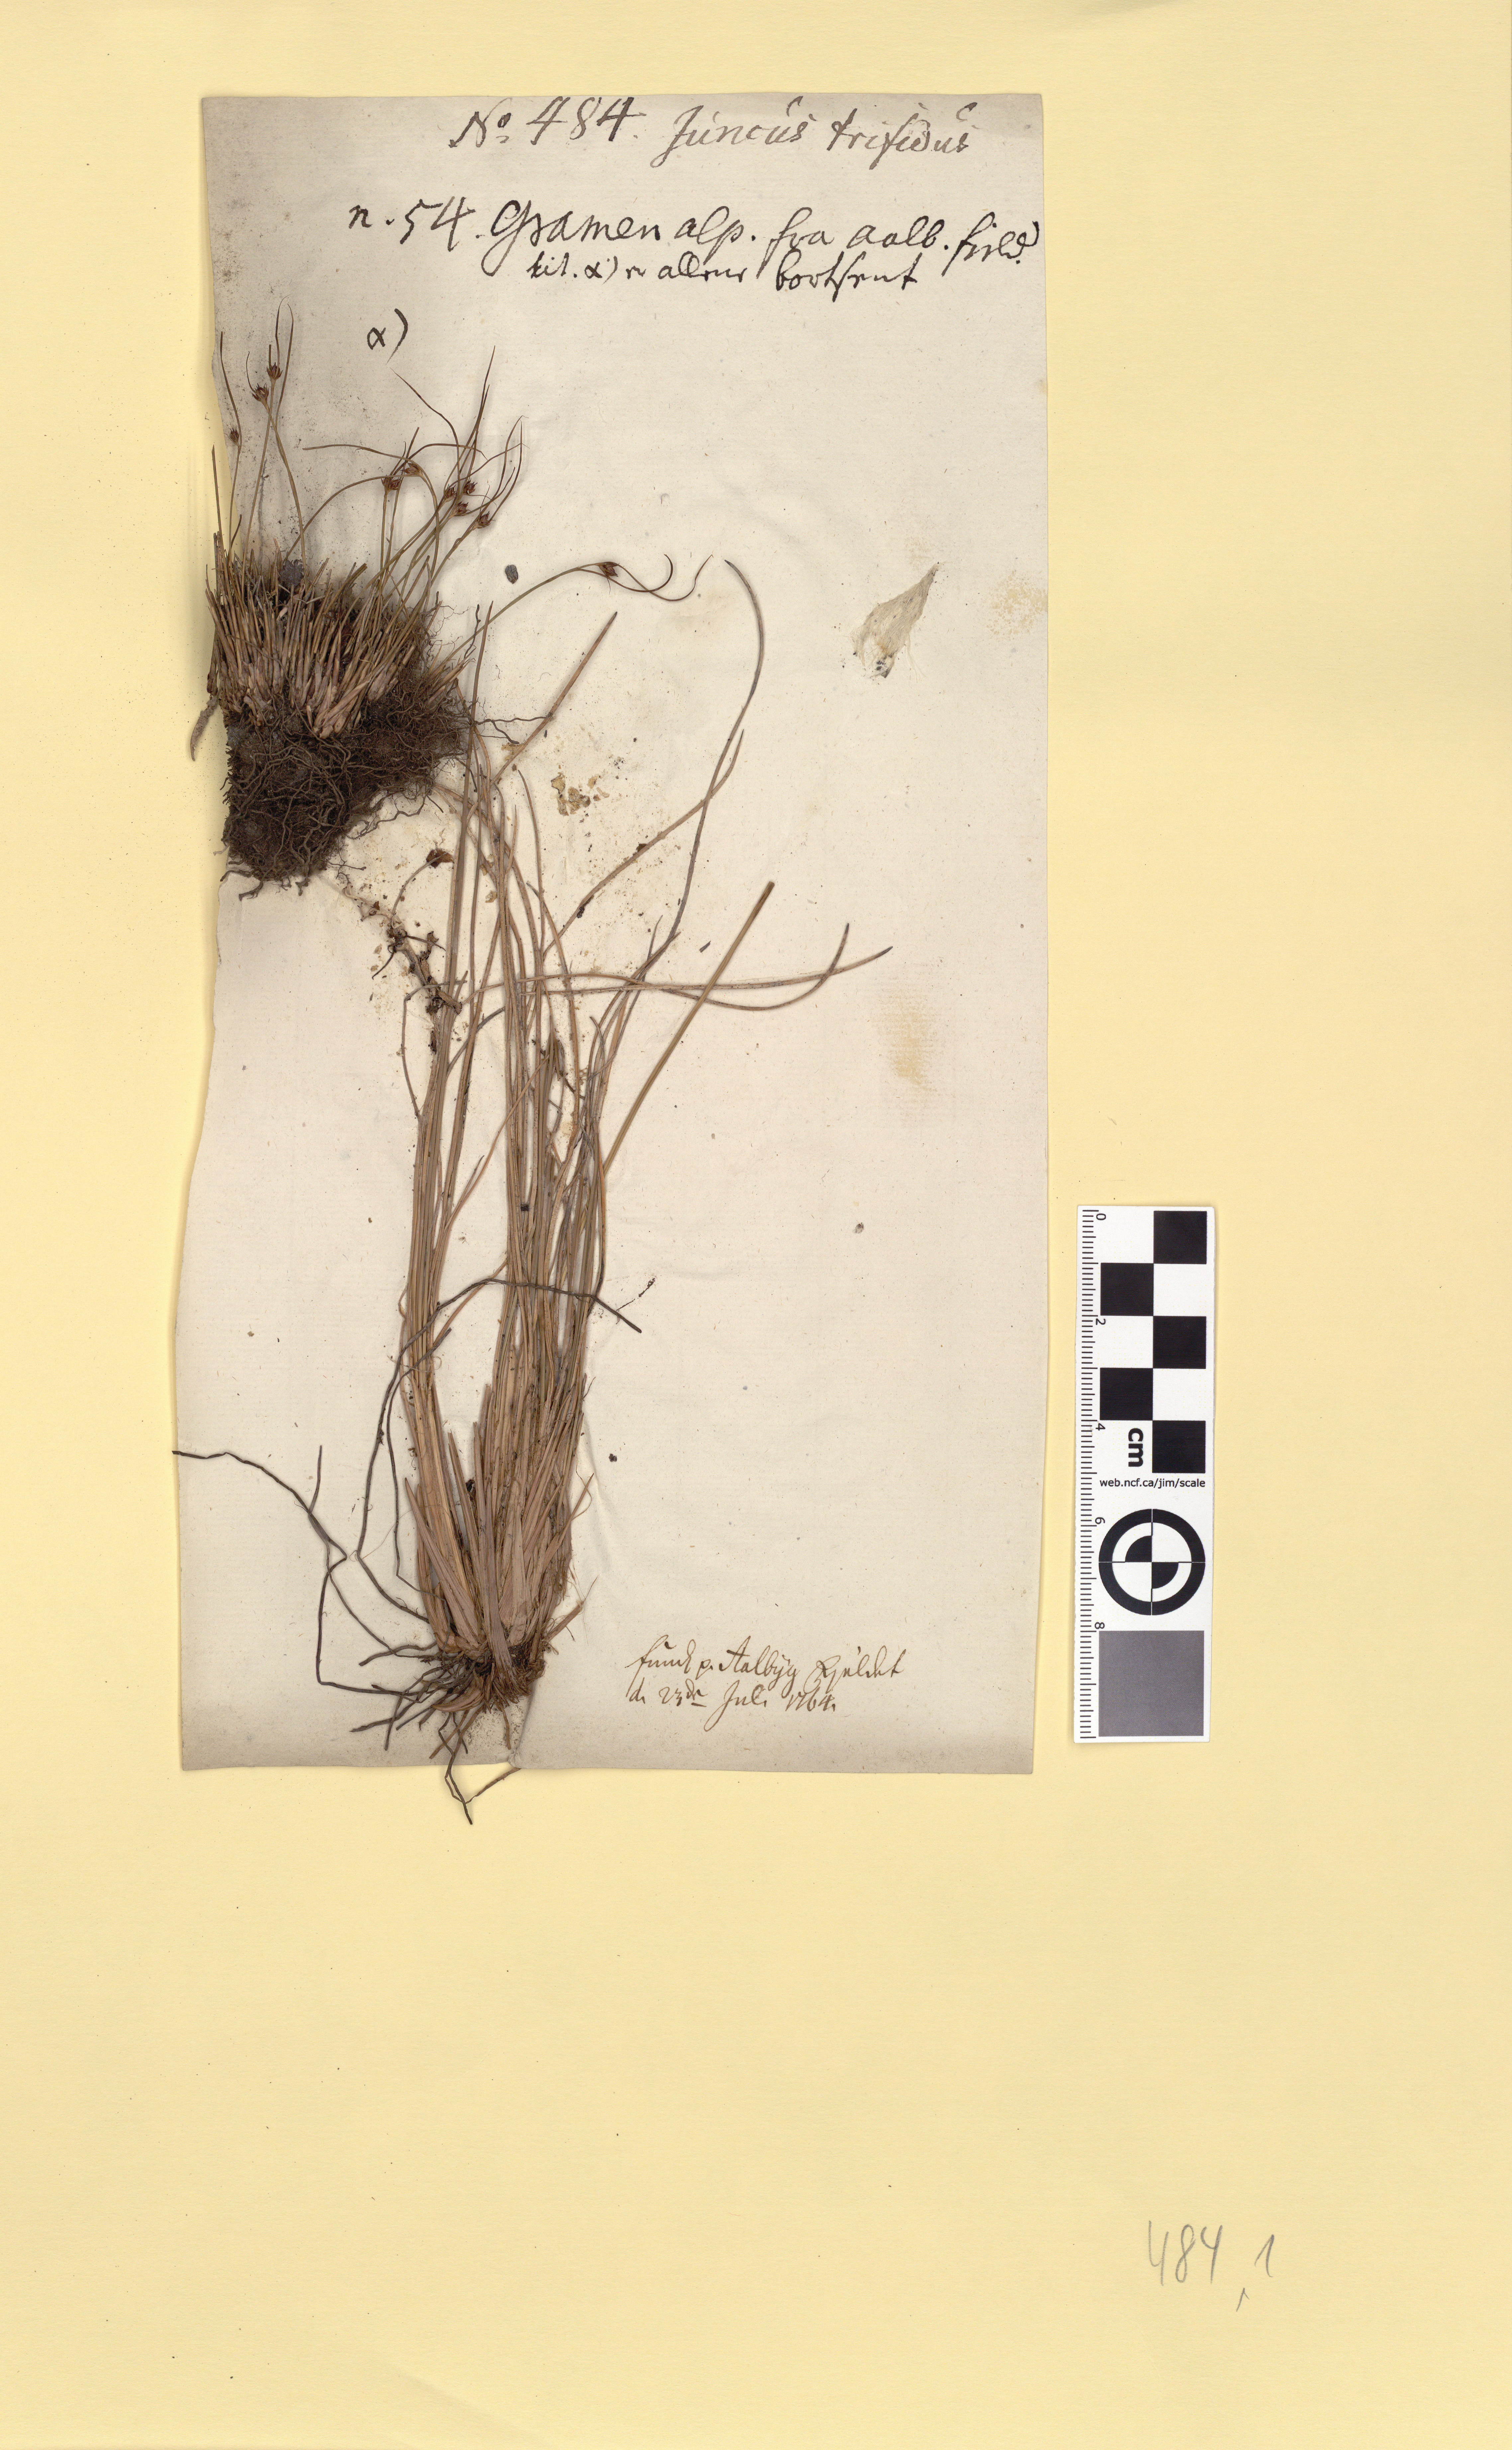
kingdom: Plantae
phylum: Tracheophyta
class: Liliopsida
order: Poales
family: Juncaceae
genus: Oreojuncus
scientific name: Oreojuncus trifidus
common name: Highland rush
